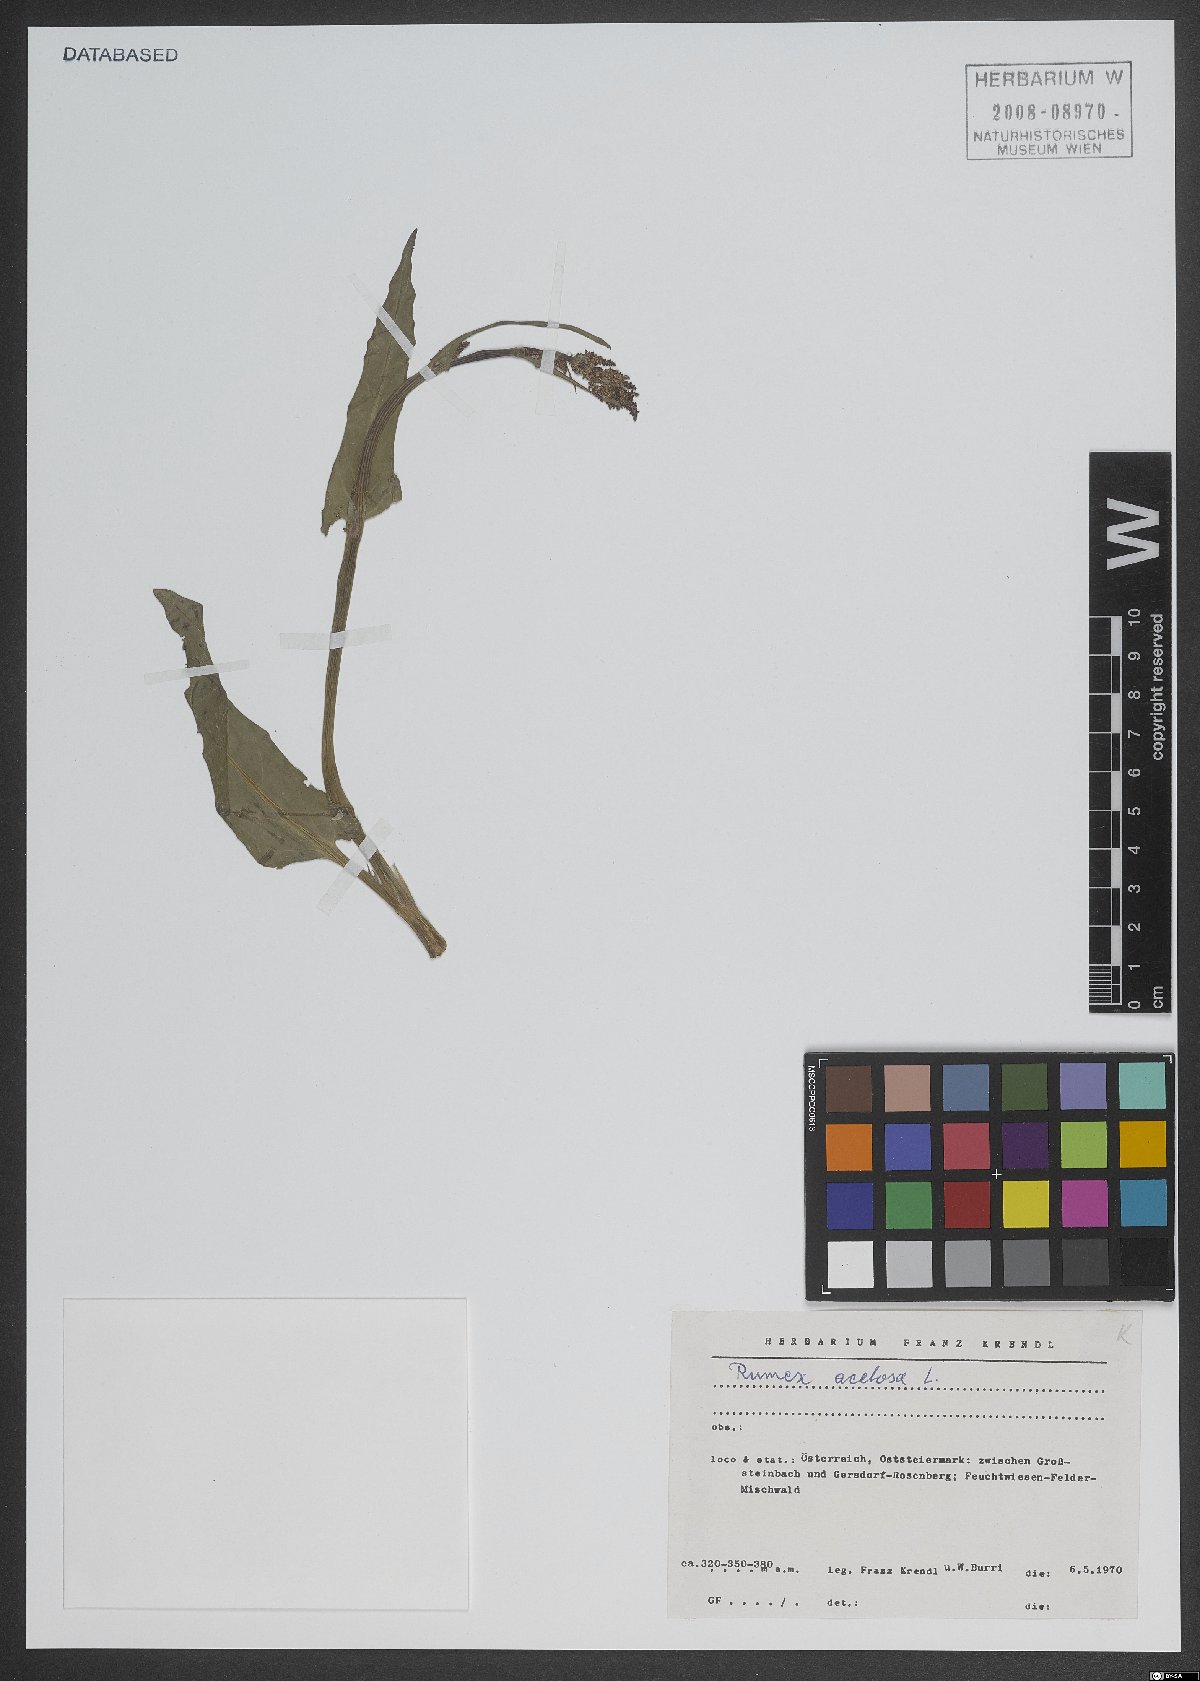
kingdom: Plantae
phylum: Tracheophyta
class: Magnoliopsida
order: Caryophyllales
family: Polygonaceae
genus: Rumex
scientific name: Rumex acetosa
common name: Garden sorrel
